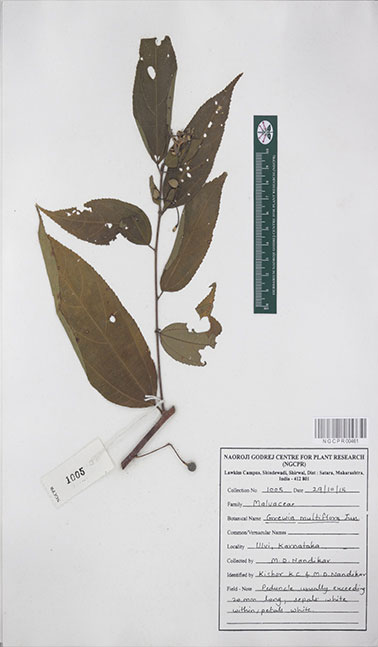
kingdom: Plantae
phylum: Tracheophyta
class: Magnoliopsida
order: Malvales
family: Malvaceae
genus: Grewia
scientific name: Grewia multiflora
